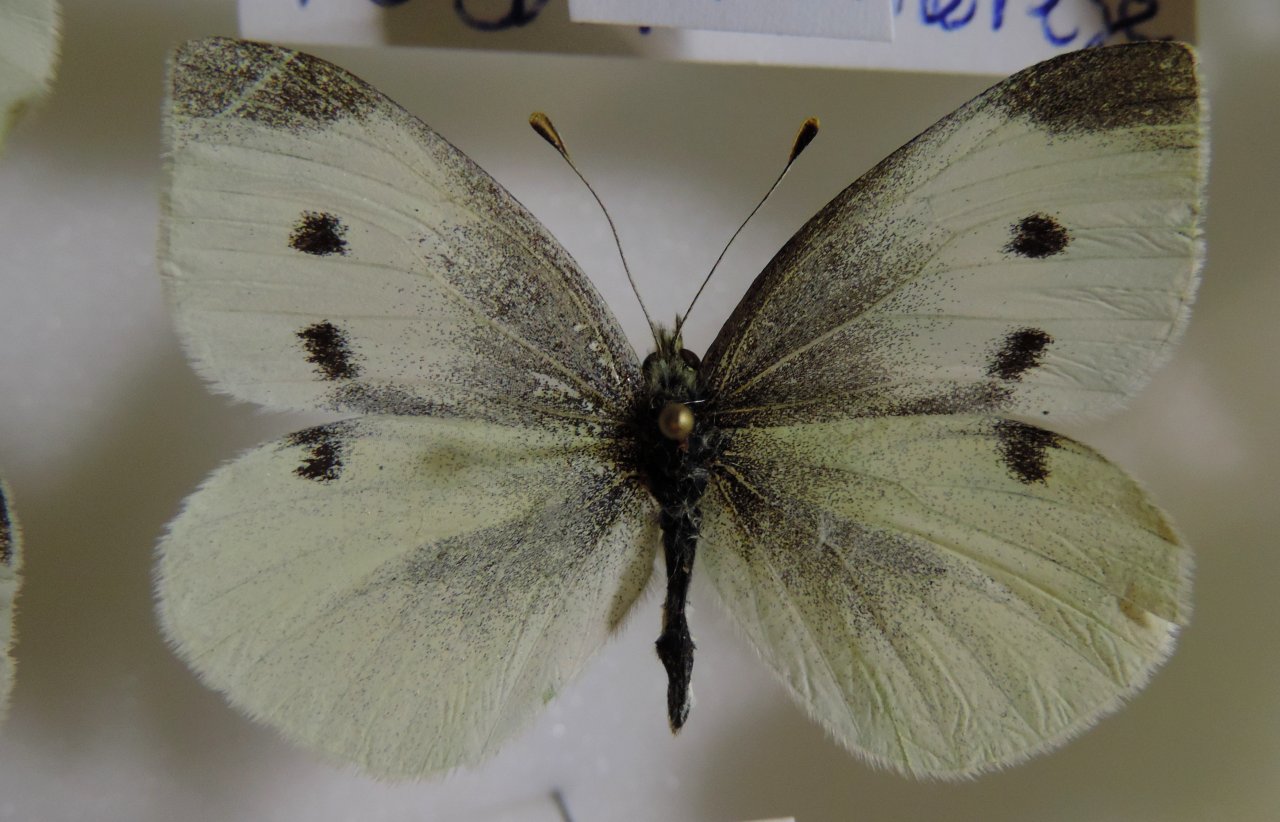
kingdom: Animalia
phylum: Arthropoda
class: Insecta
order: Lepidoptera
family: Pieridae
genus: Pieris
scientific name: Pieris rapae
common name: Cabbage White
